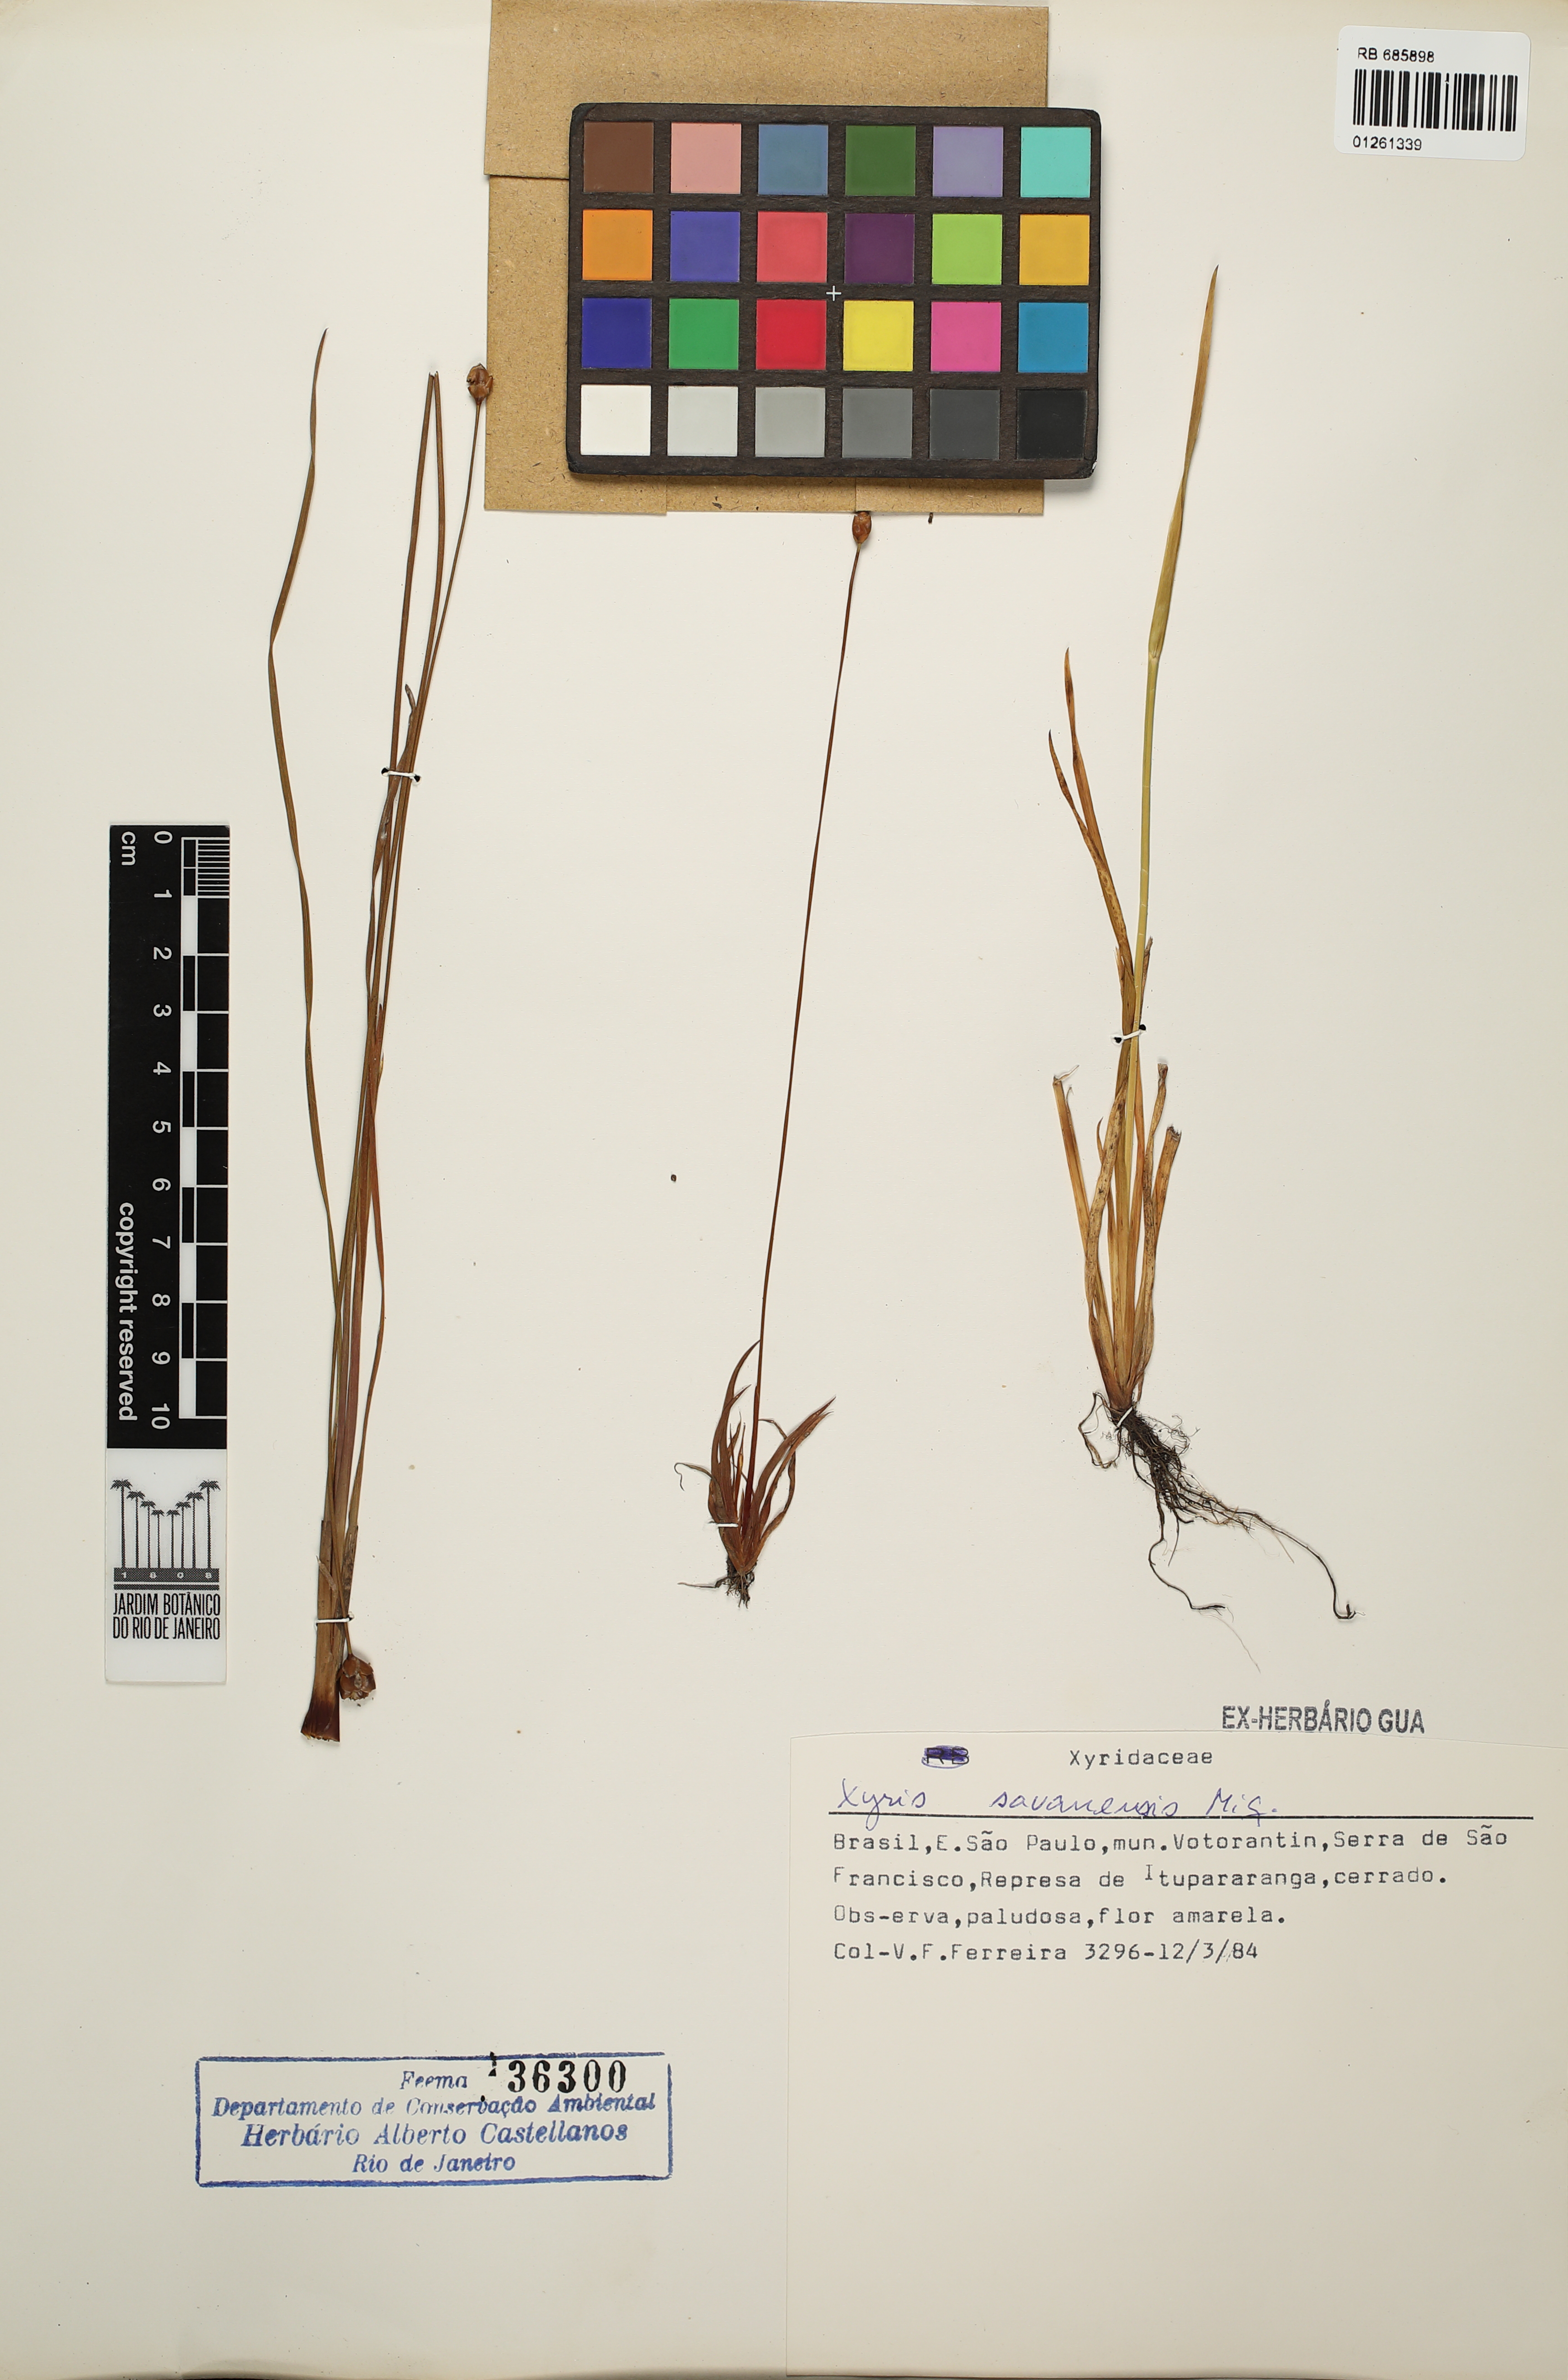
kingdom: Plantae
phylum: Tracheophyta
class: Liliopsida
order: Poales
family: Xyridaceae
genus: Xyris
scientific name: Xyris savanensis
